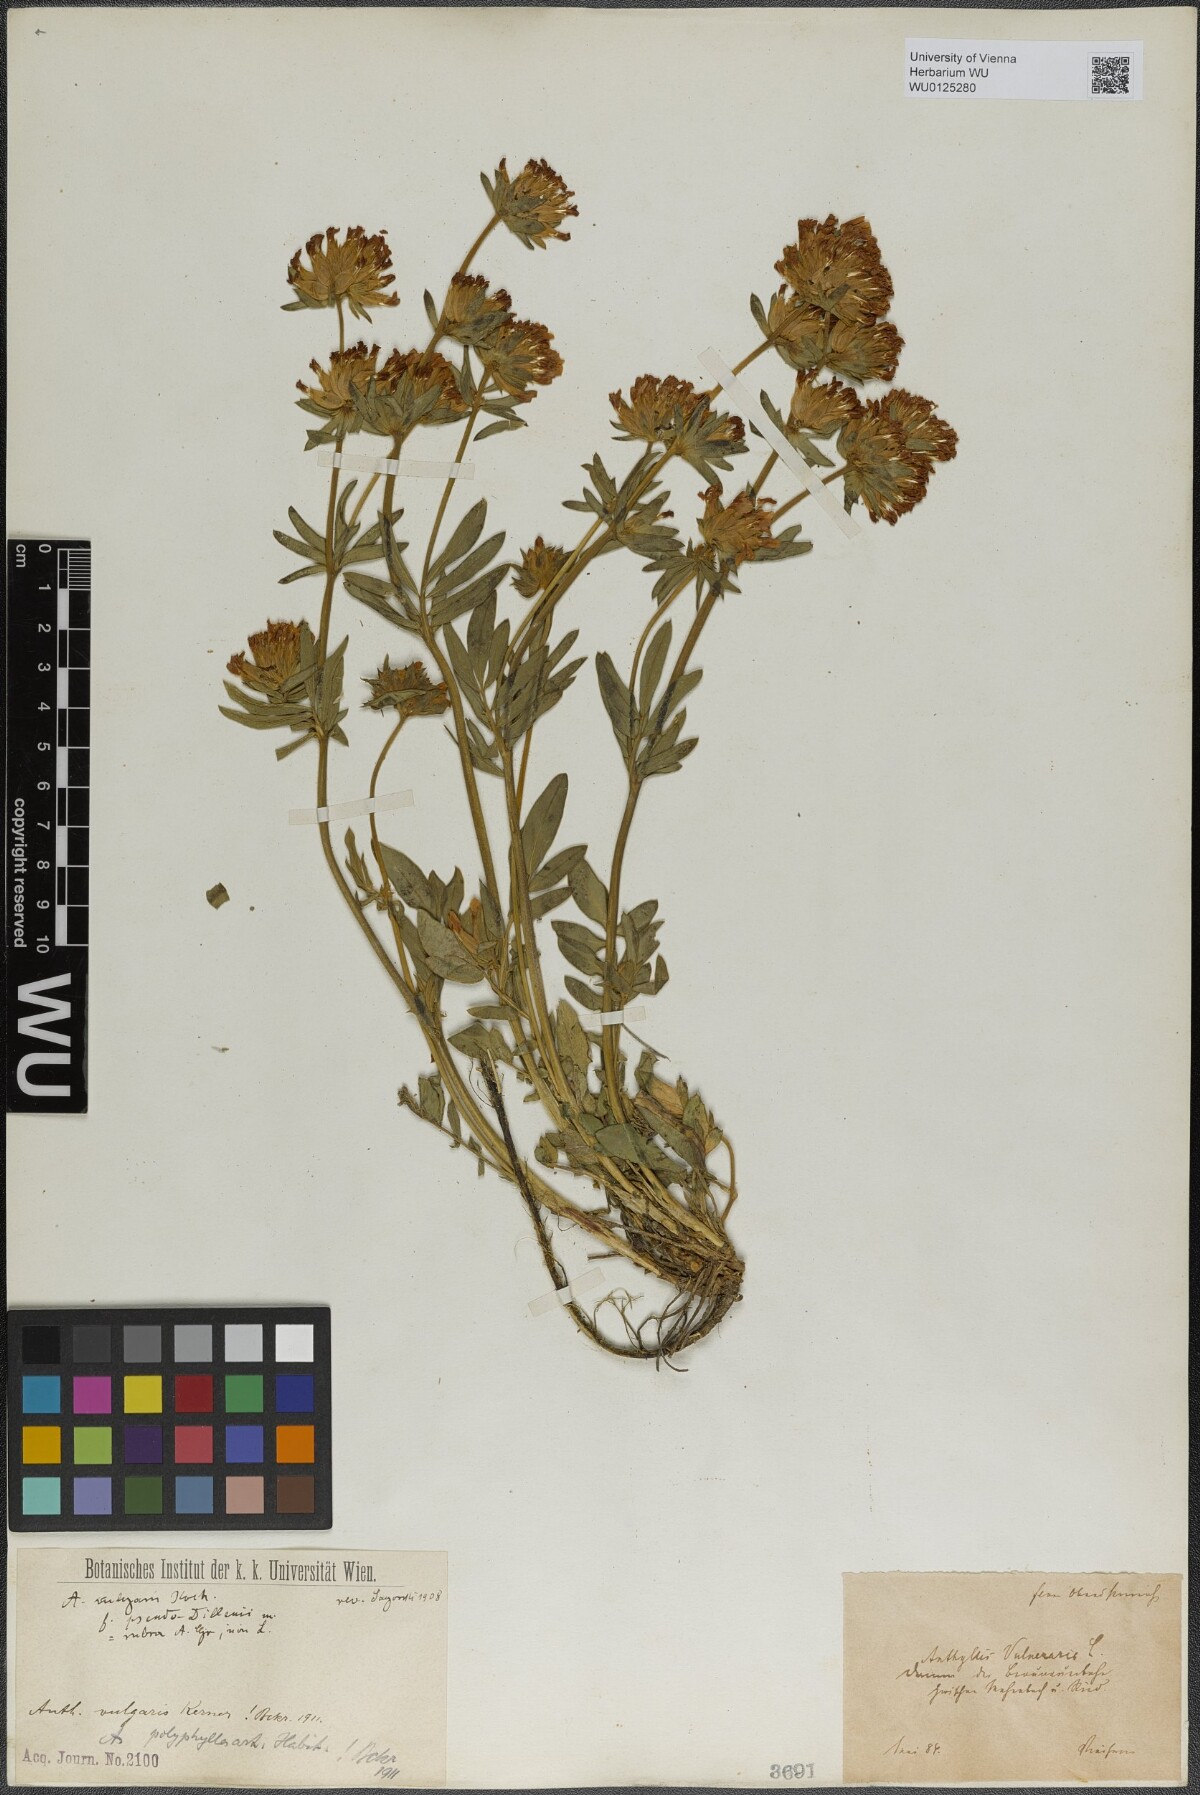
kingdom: Plantae
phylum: Tracheophyta
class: Magnoliopsida
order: Fabales
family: Fabaceae
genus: Anthyllis
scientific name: Anthyllis vulneraria
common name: Kidney vetch
